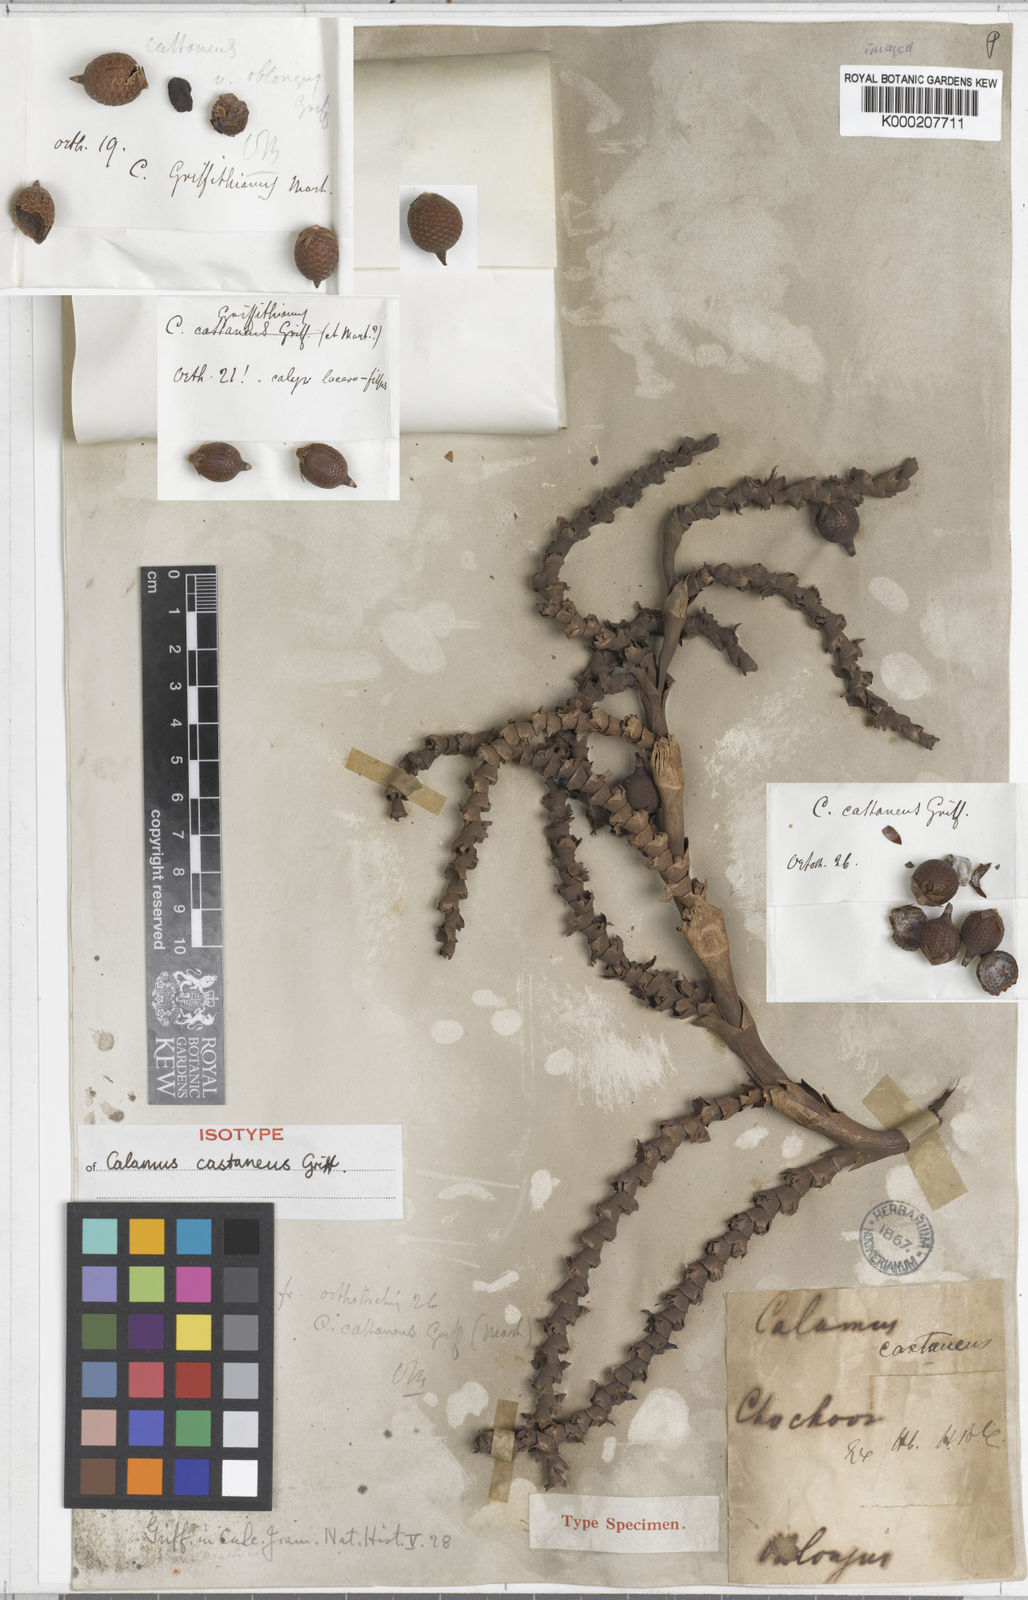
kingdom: Plantae
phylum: Tracheophyta
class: Liliopsida
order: Arecales
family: Arecaceae
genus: Calamus
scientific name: Calamus castaneus
